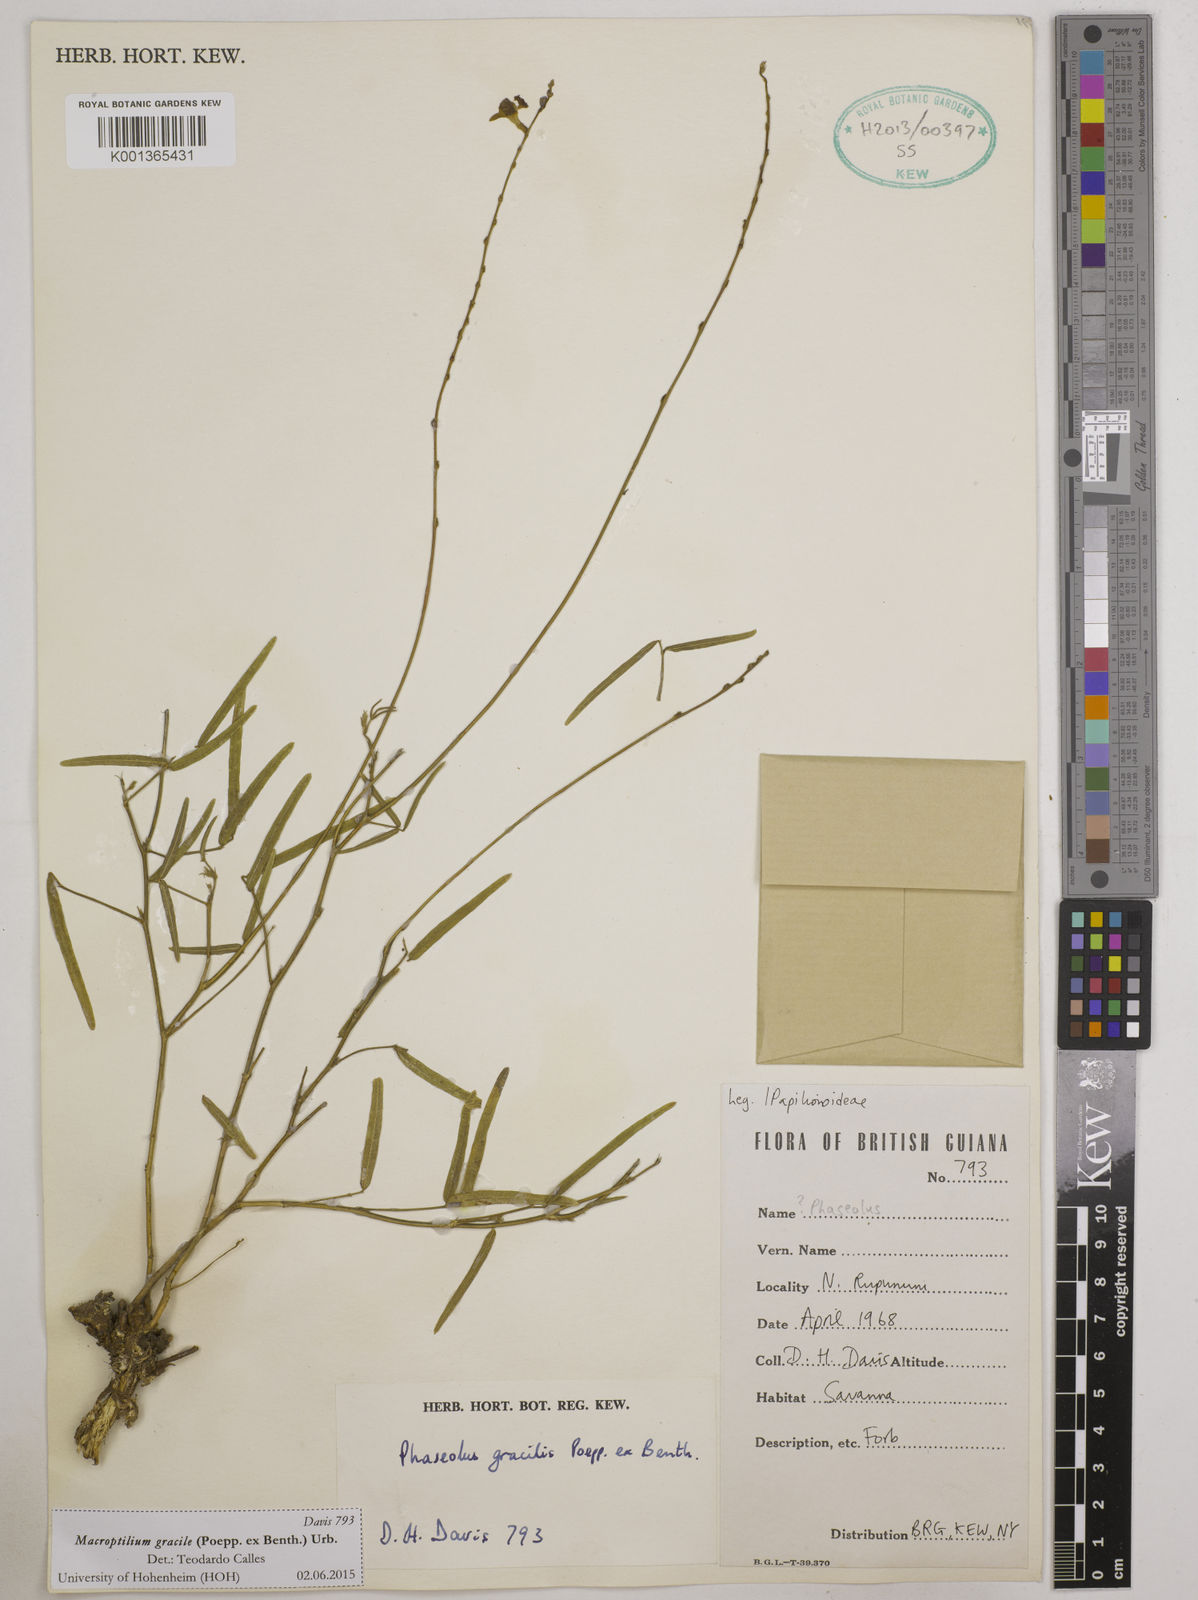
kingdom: Plantae
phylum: Tracheophyta
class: Magnoliopsida
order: Fabales
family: Fabaceae
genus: Macroptilium
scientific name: Macroptilium gracile
